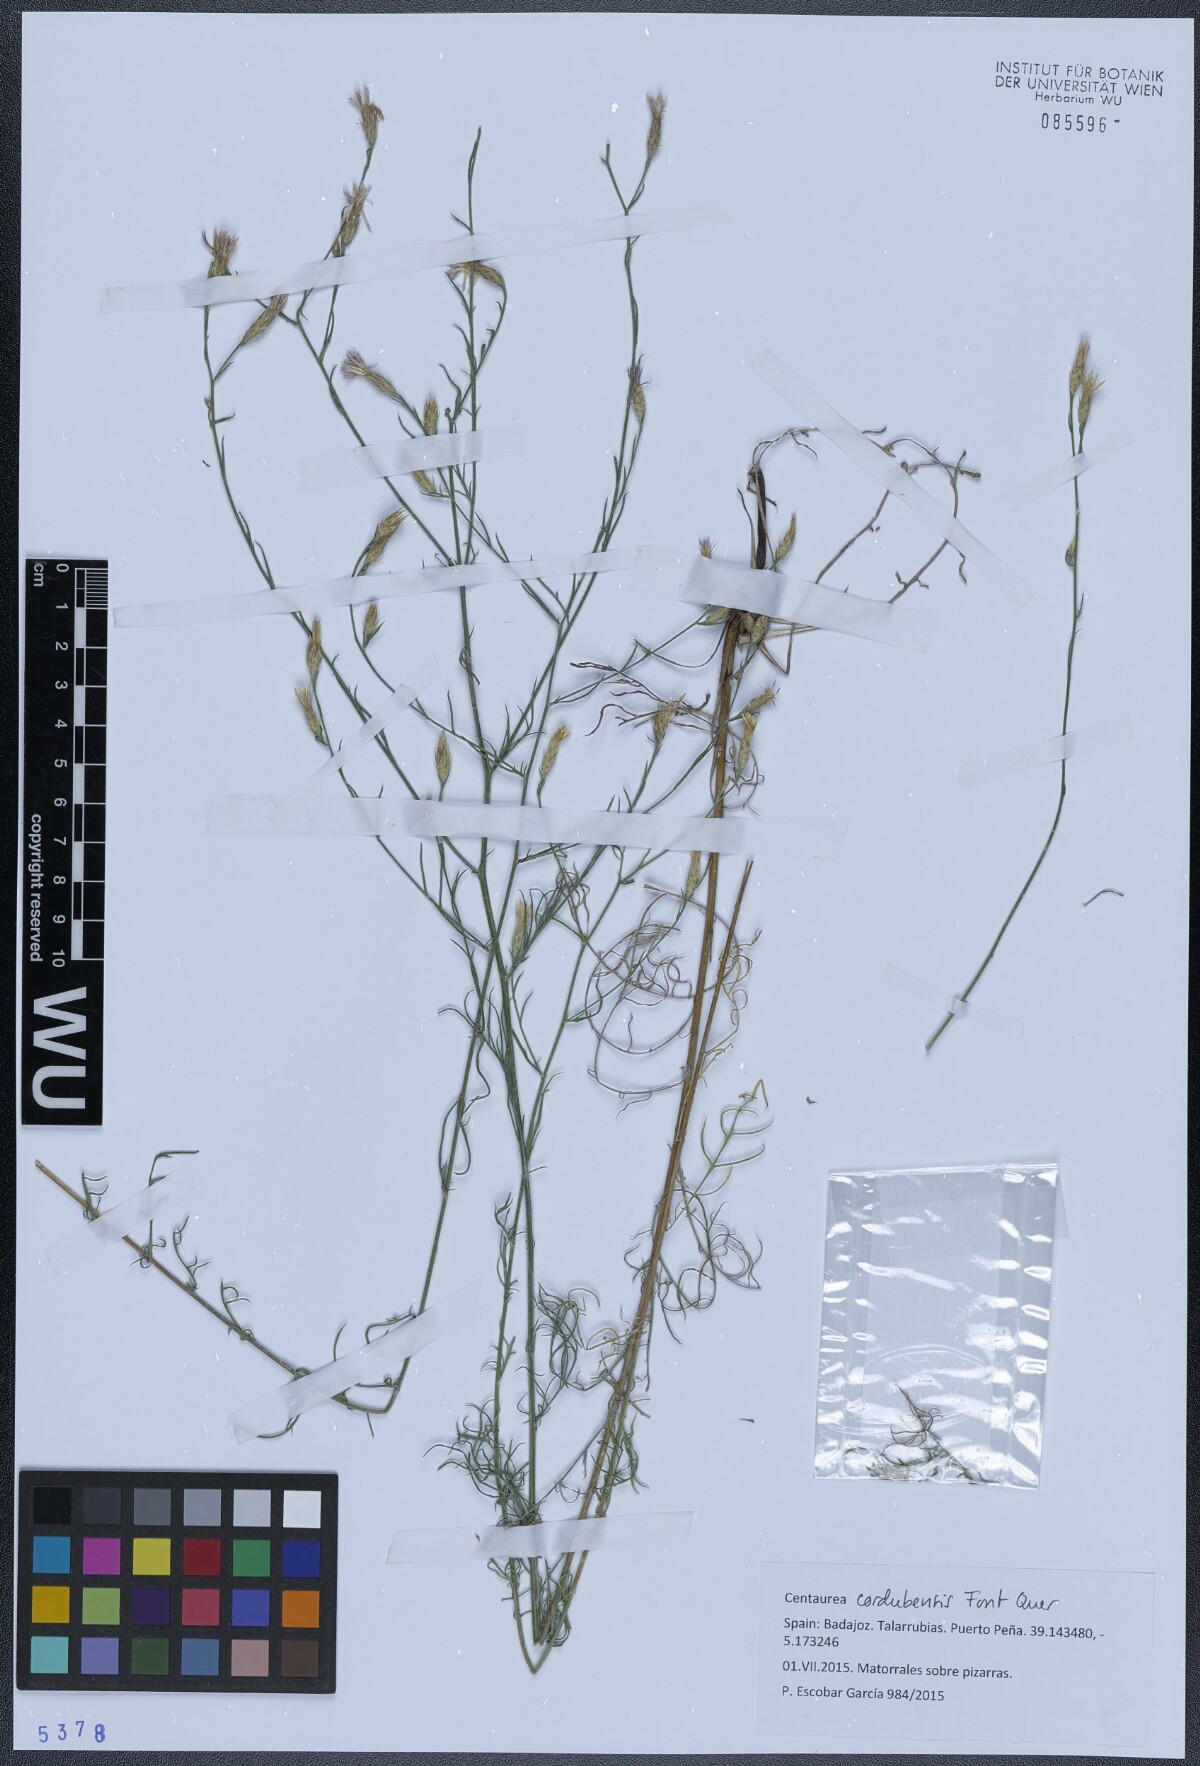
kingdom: Plantae
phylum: Tracheophyta
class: Magnoliopsida
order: Asterales
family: Asteraceae
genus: Centaurea
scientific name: Centaurea cordubensis
